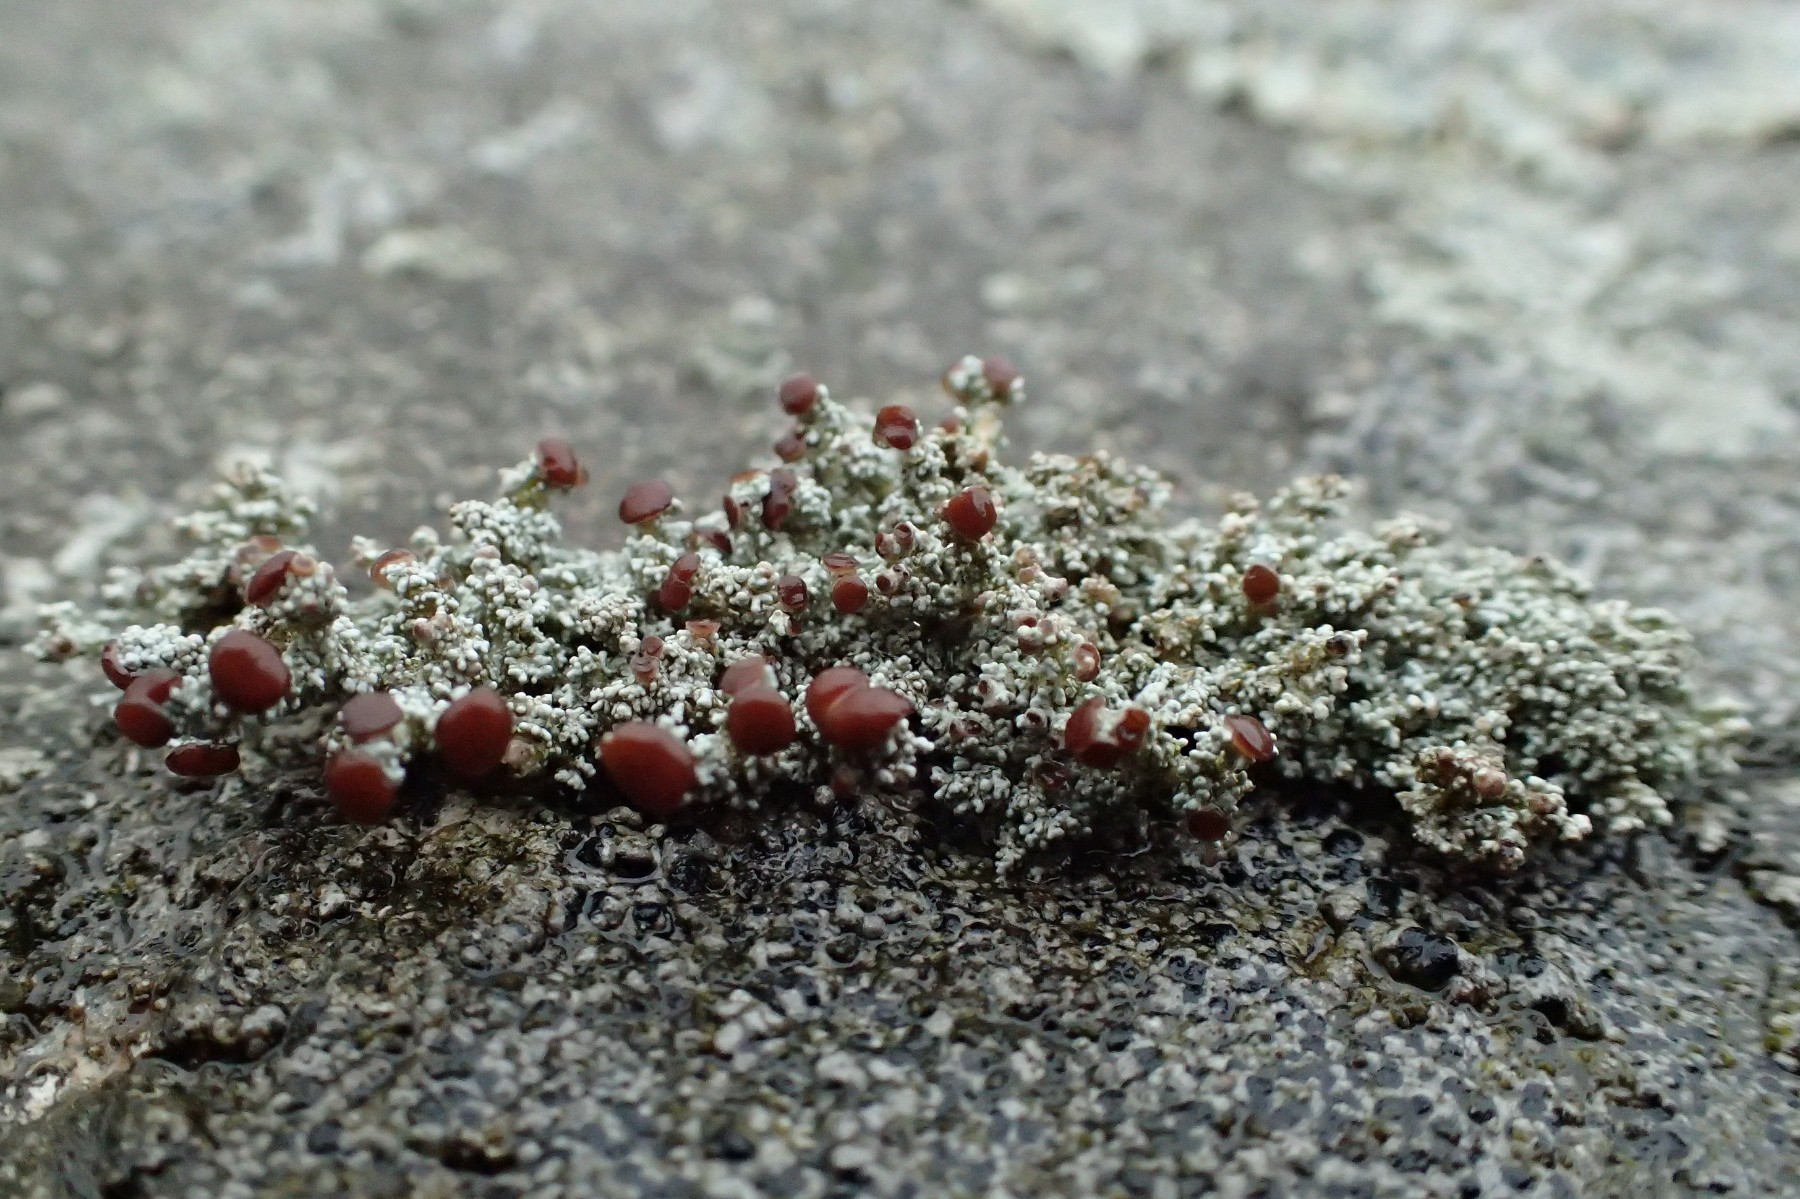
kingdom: Fungi
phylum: Ascomycota
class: Lecanoromycetes
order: Lecanorales
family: Stereocaulaceae
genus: Stereocaulon
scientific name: Stereocaulon dactylophyllum
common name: finger-korallav
